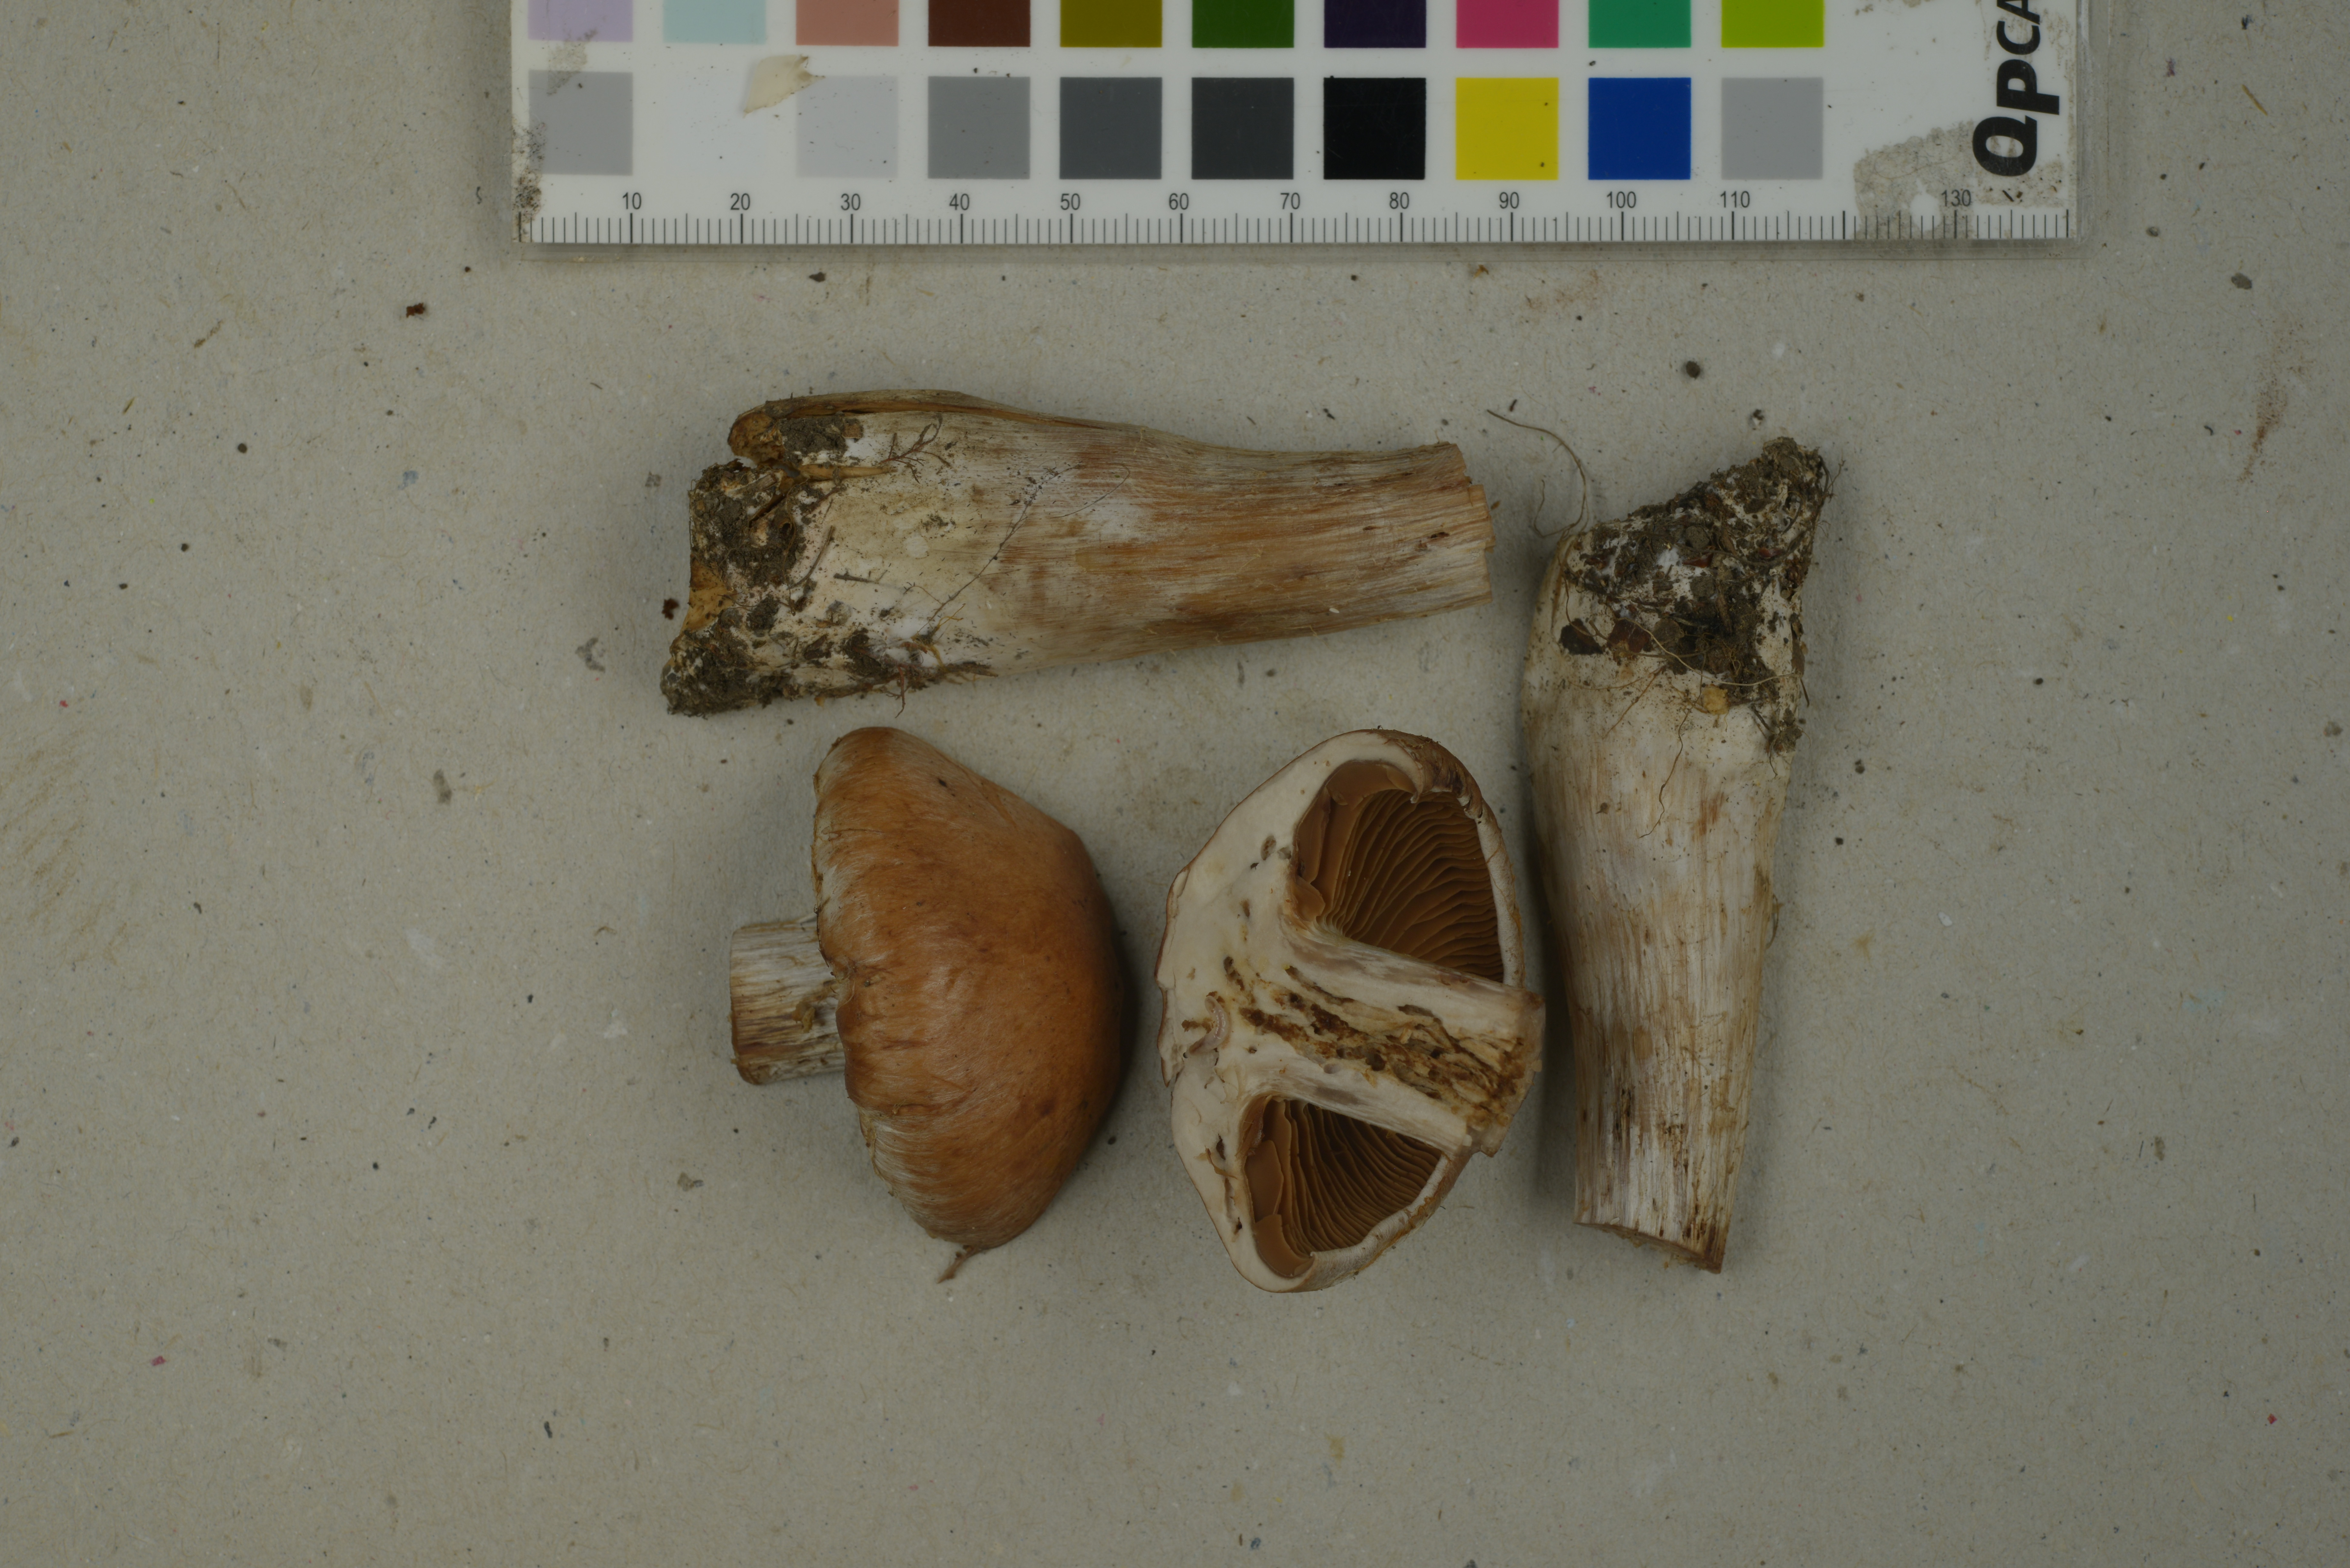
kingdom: Fungi
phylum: Basidiomycota
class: Agaricomycetes
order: Agaricales
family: Cortinariaceae
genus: Cortinarius
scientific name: Cortinarius solis-occasus
